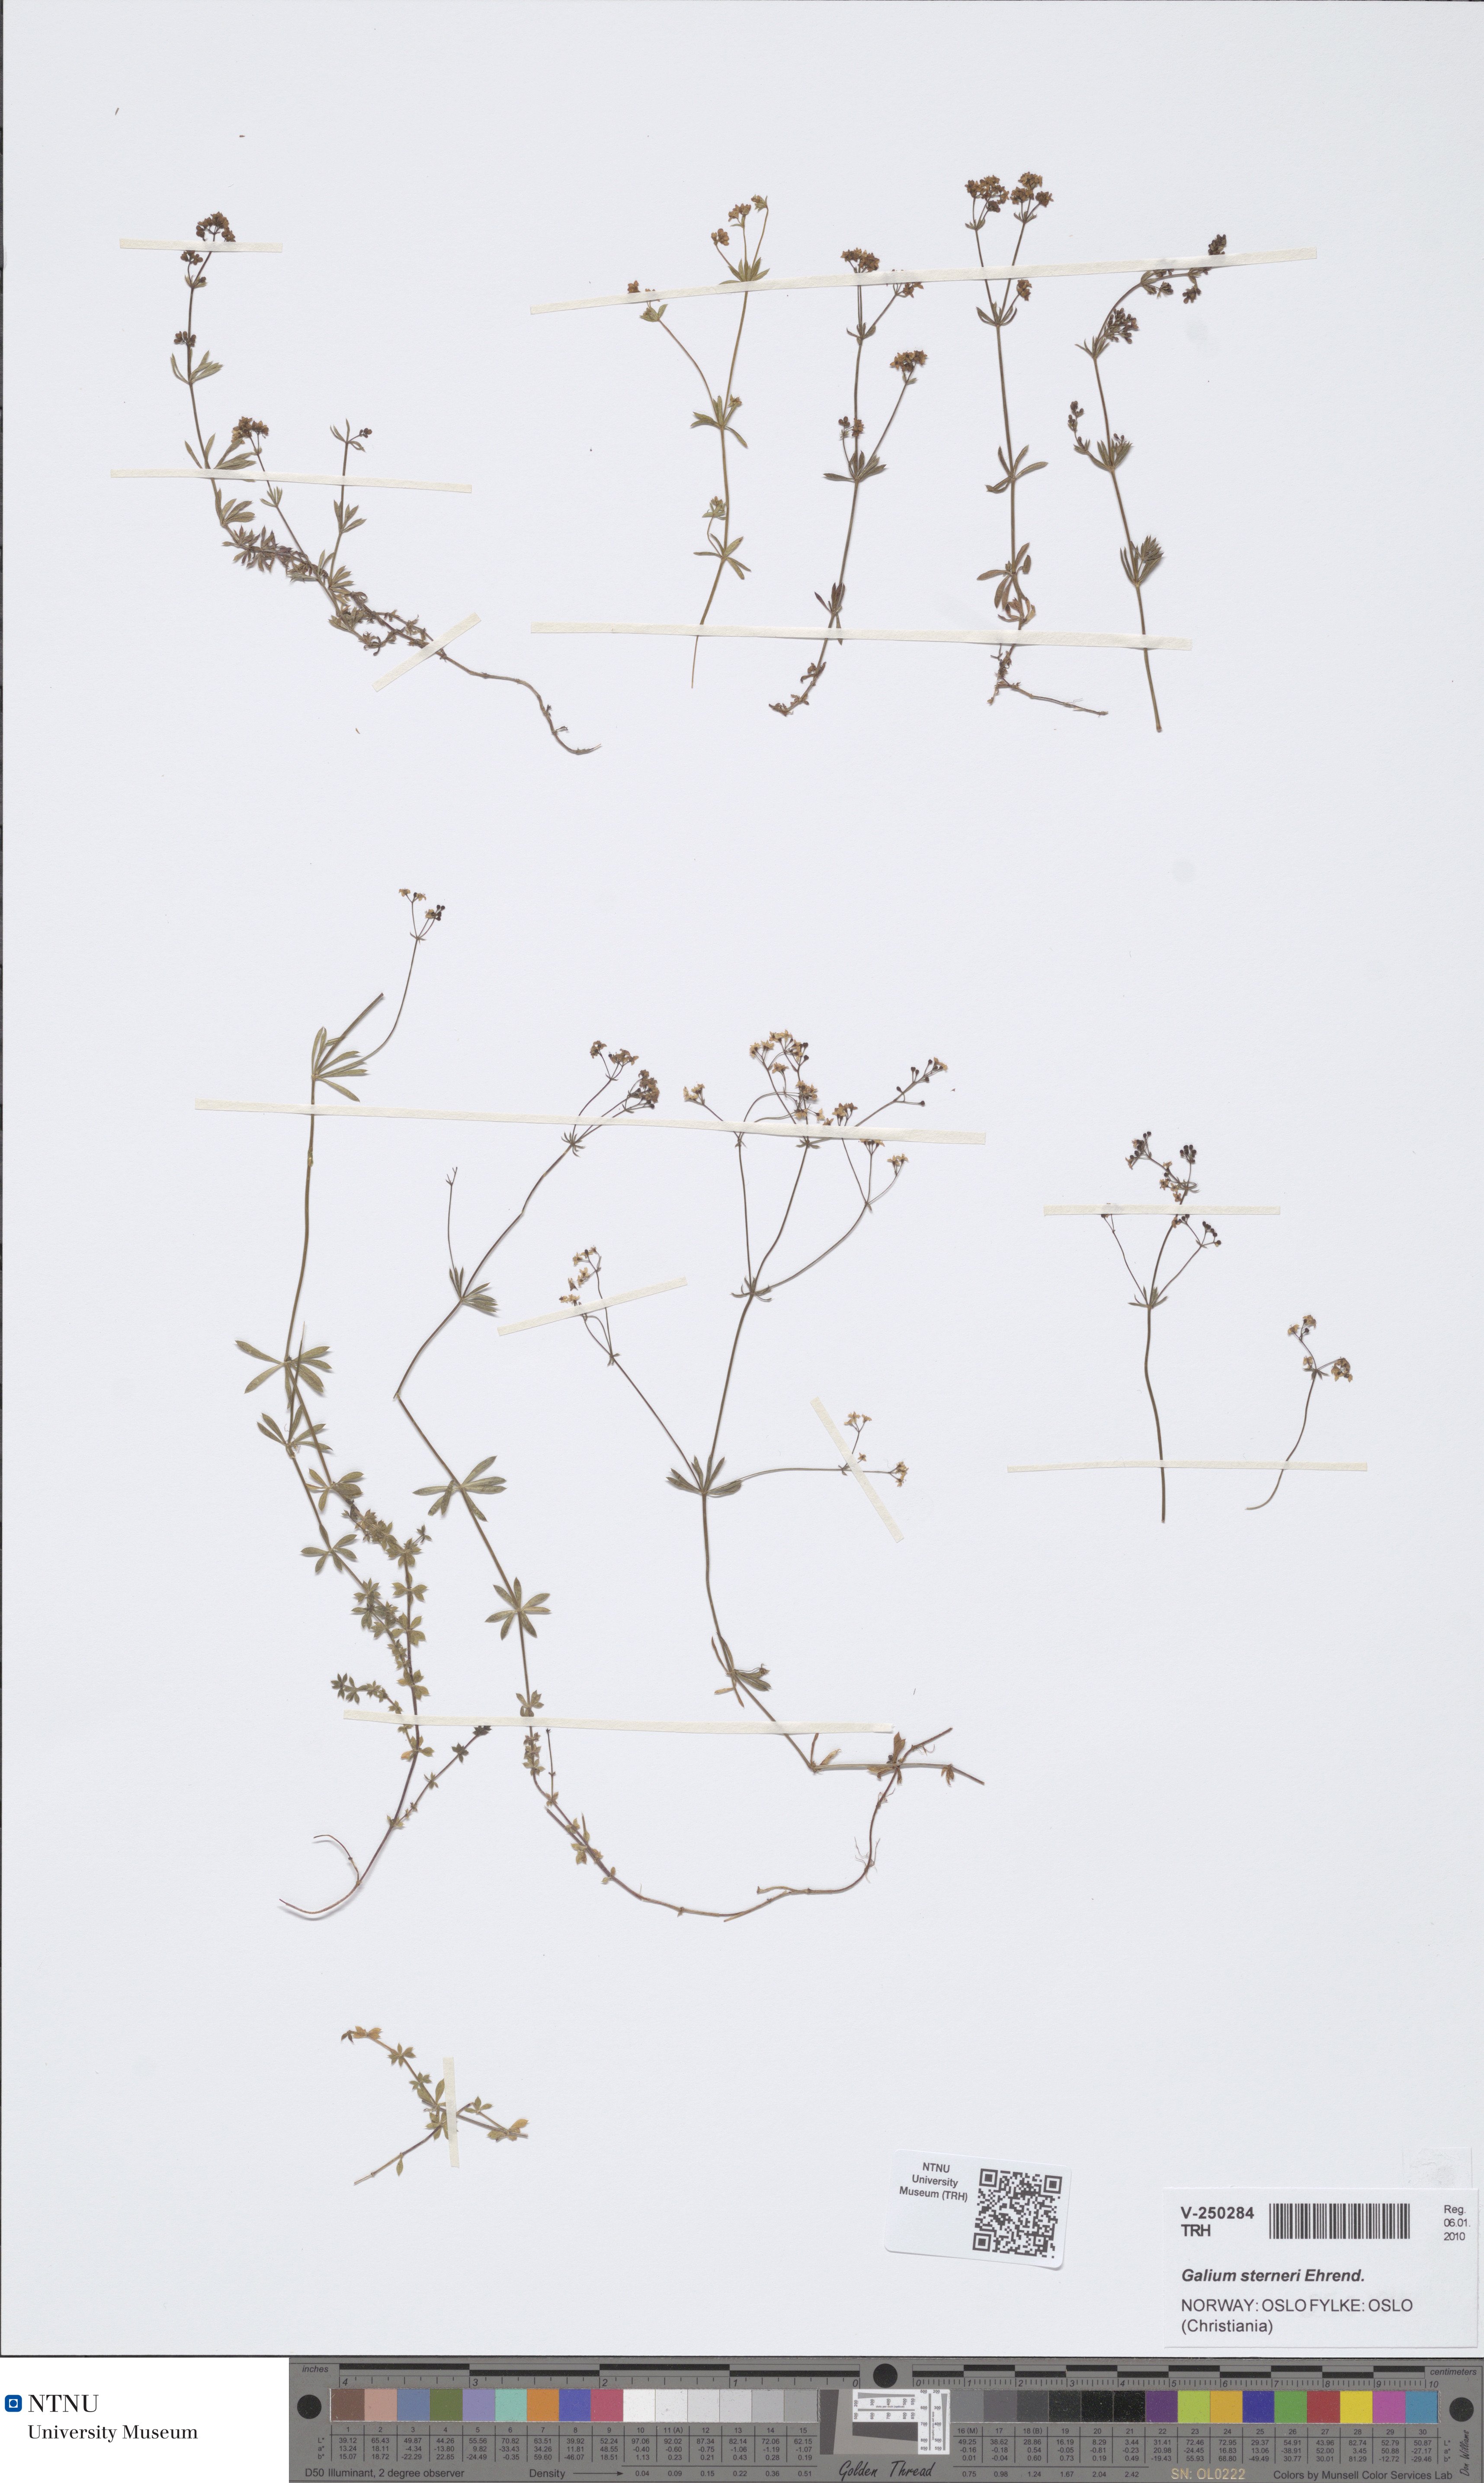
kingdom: Plantae
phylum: Tracheophyta
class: Magnoliopsida
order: Gentianales
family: Rubiaceae
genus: Galium
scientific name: Galium sterneri
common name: Limestone bedstraw
